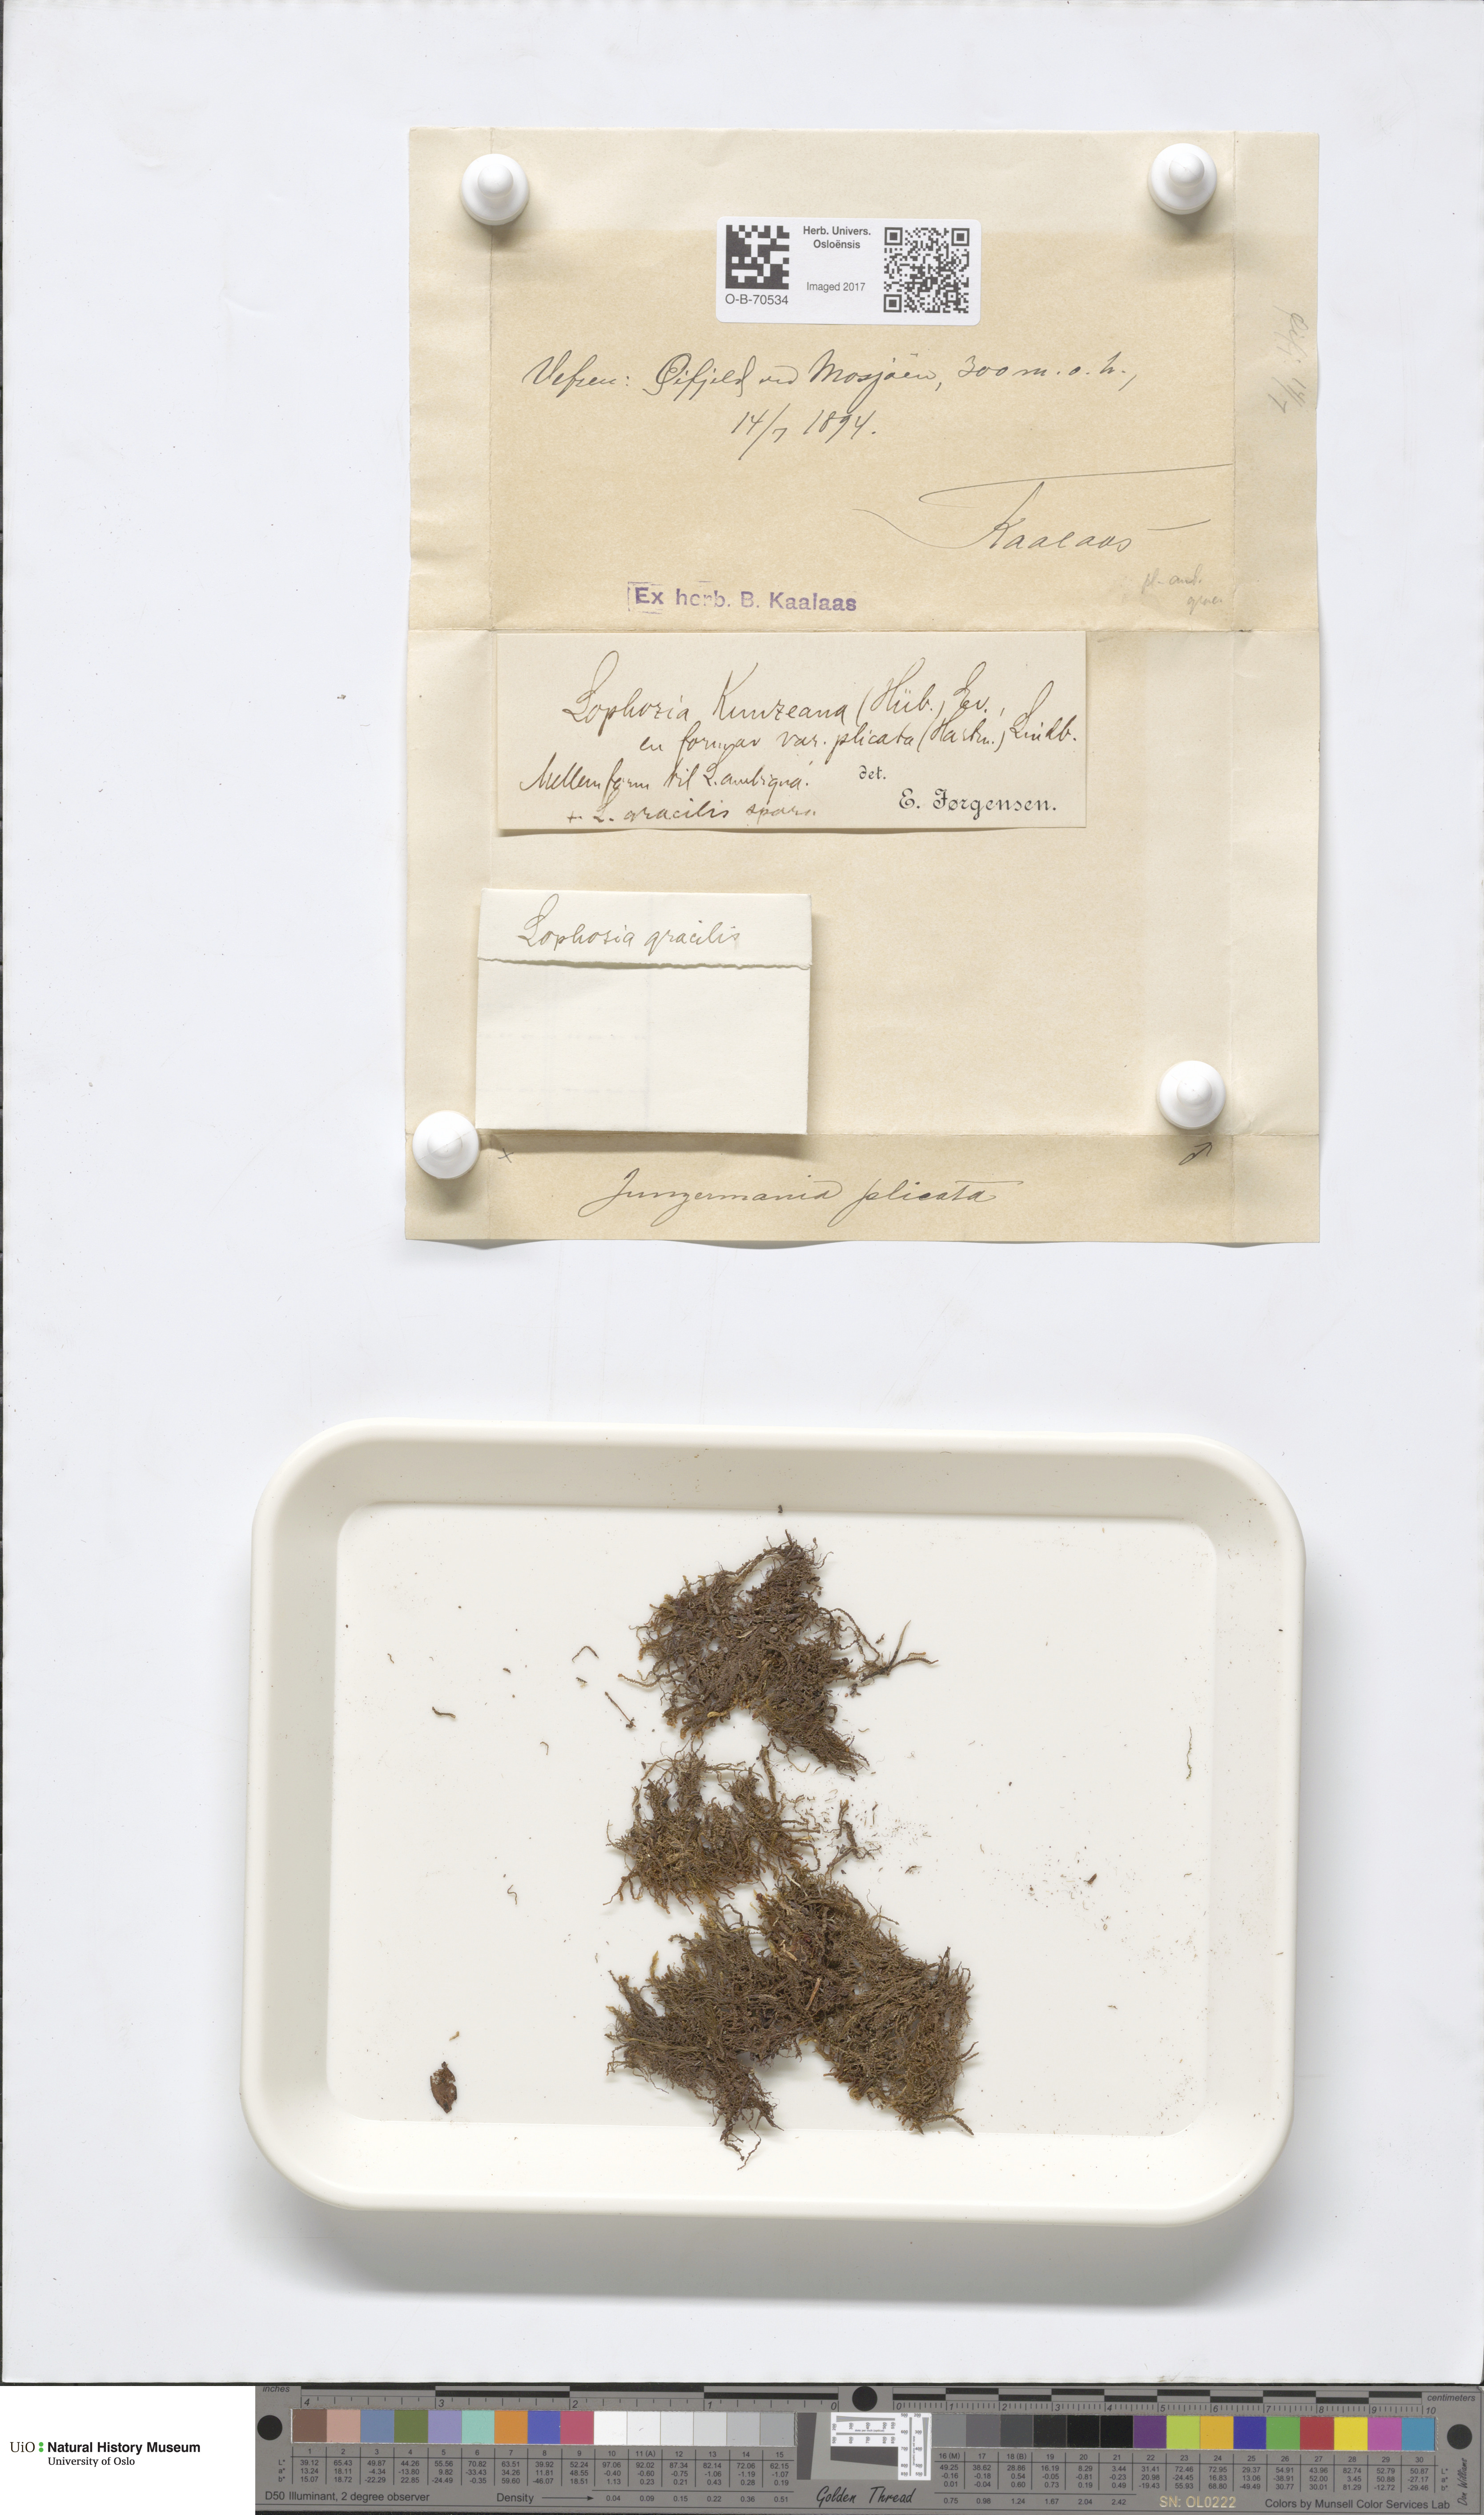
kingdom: Plantae
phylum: Marchantiophyta
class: Jungermanniopsida
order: Jungermanniales
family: Anastrophyllaceae
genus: Schljakovia
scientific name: Schljakovia kunzeana
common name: Kunze's pawwort
